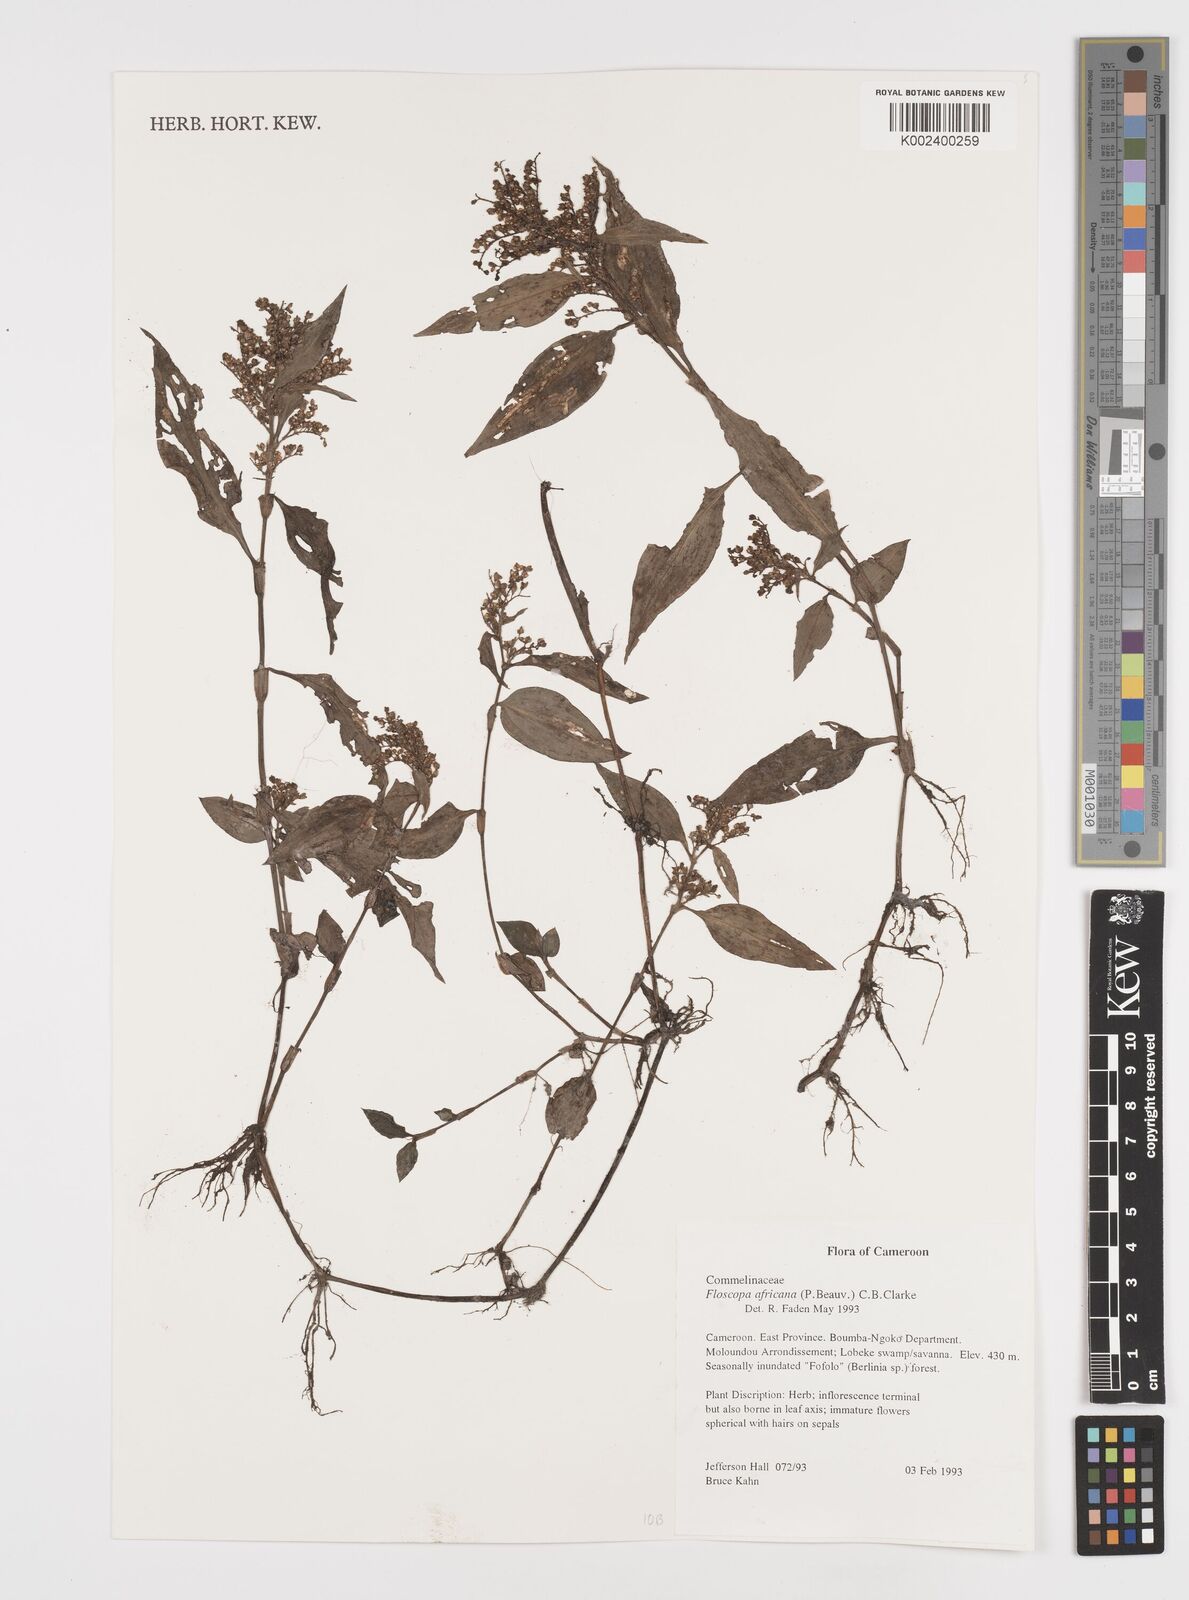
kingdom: Plantae
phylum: Tracheophyta
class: Liliopsida
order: Commelinales
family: Commelinaceae
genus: Floscopa
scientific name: Floscopa africana
